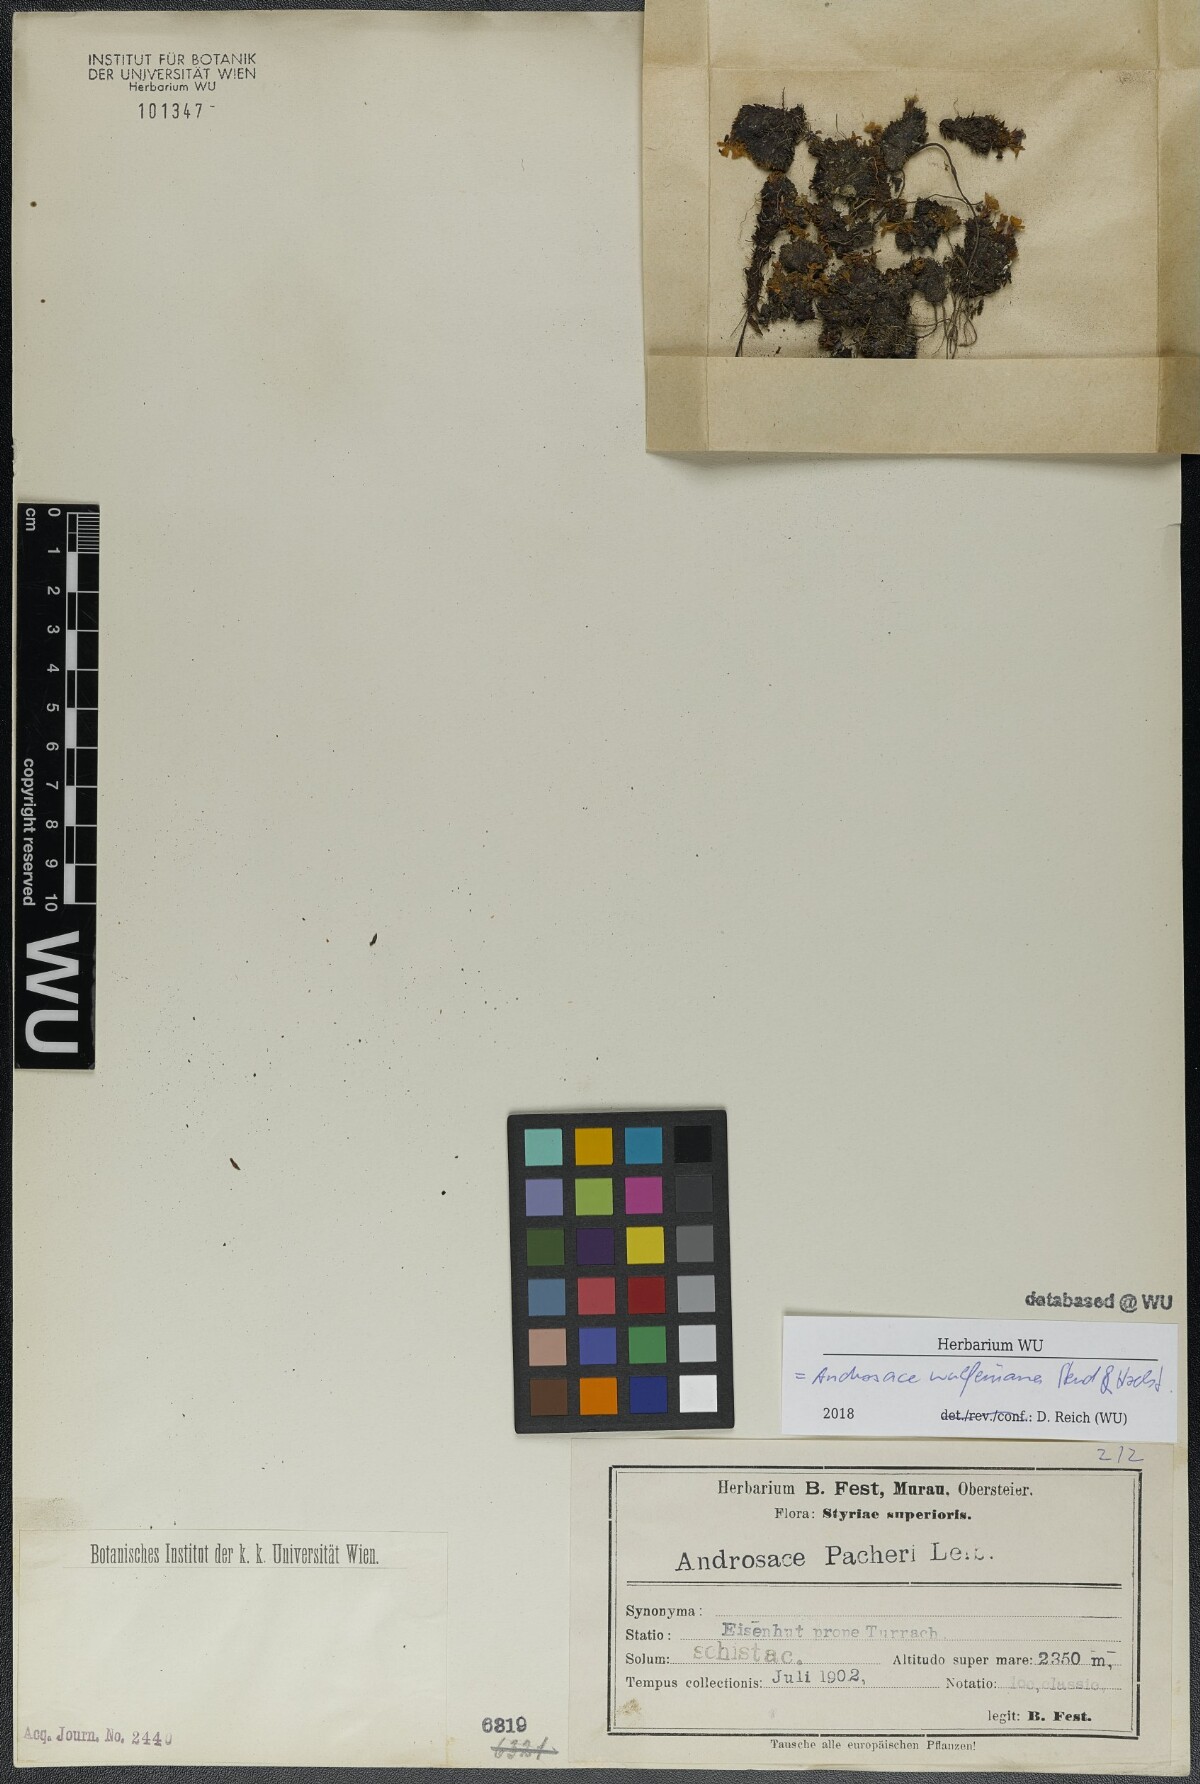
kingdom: Plantae
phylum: Tracheophyta
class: Magnoliopsida
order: Ericales
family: Primulaceae
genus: Androsace
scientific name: Androsace wulfeniana
